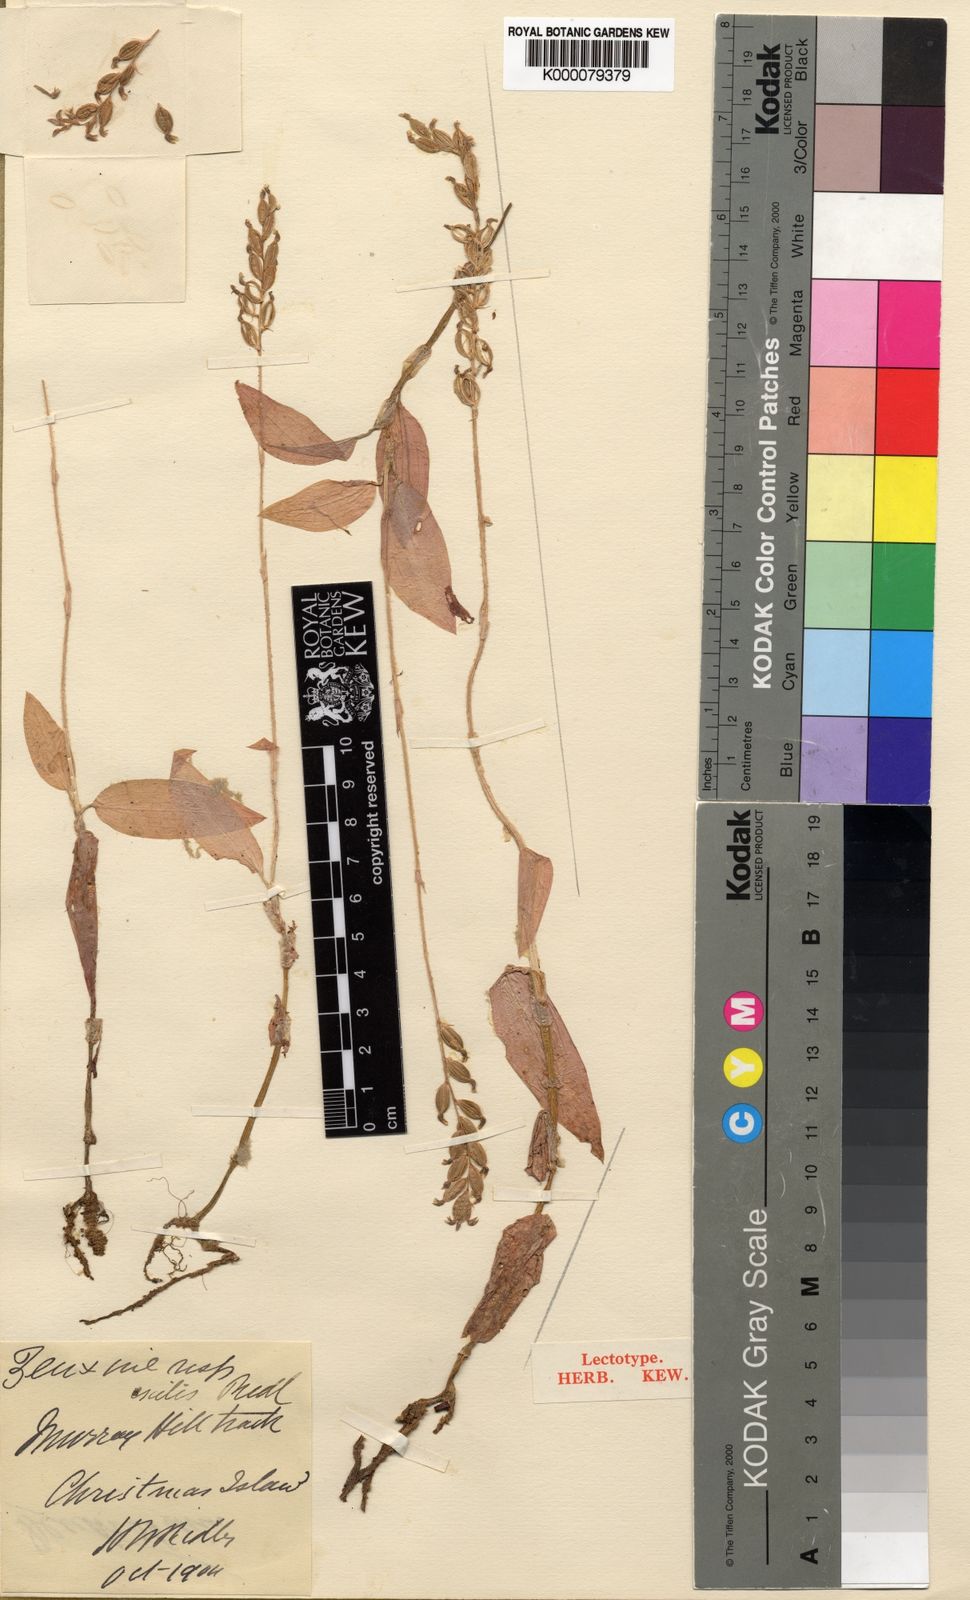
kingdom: Plantae
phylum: Tracheophyta
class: Liliopsida
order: Asparagales
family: Orchidaceae
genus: Zeuxine
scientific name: Zeuxine exilis
